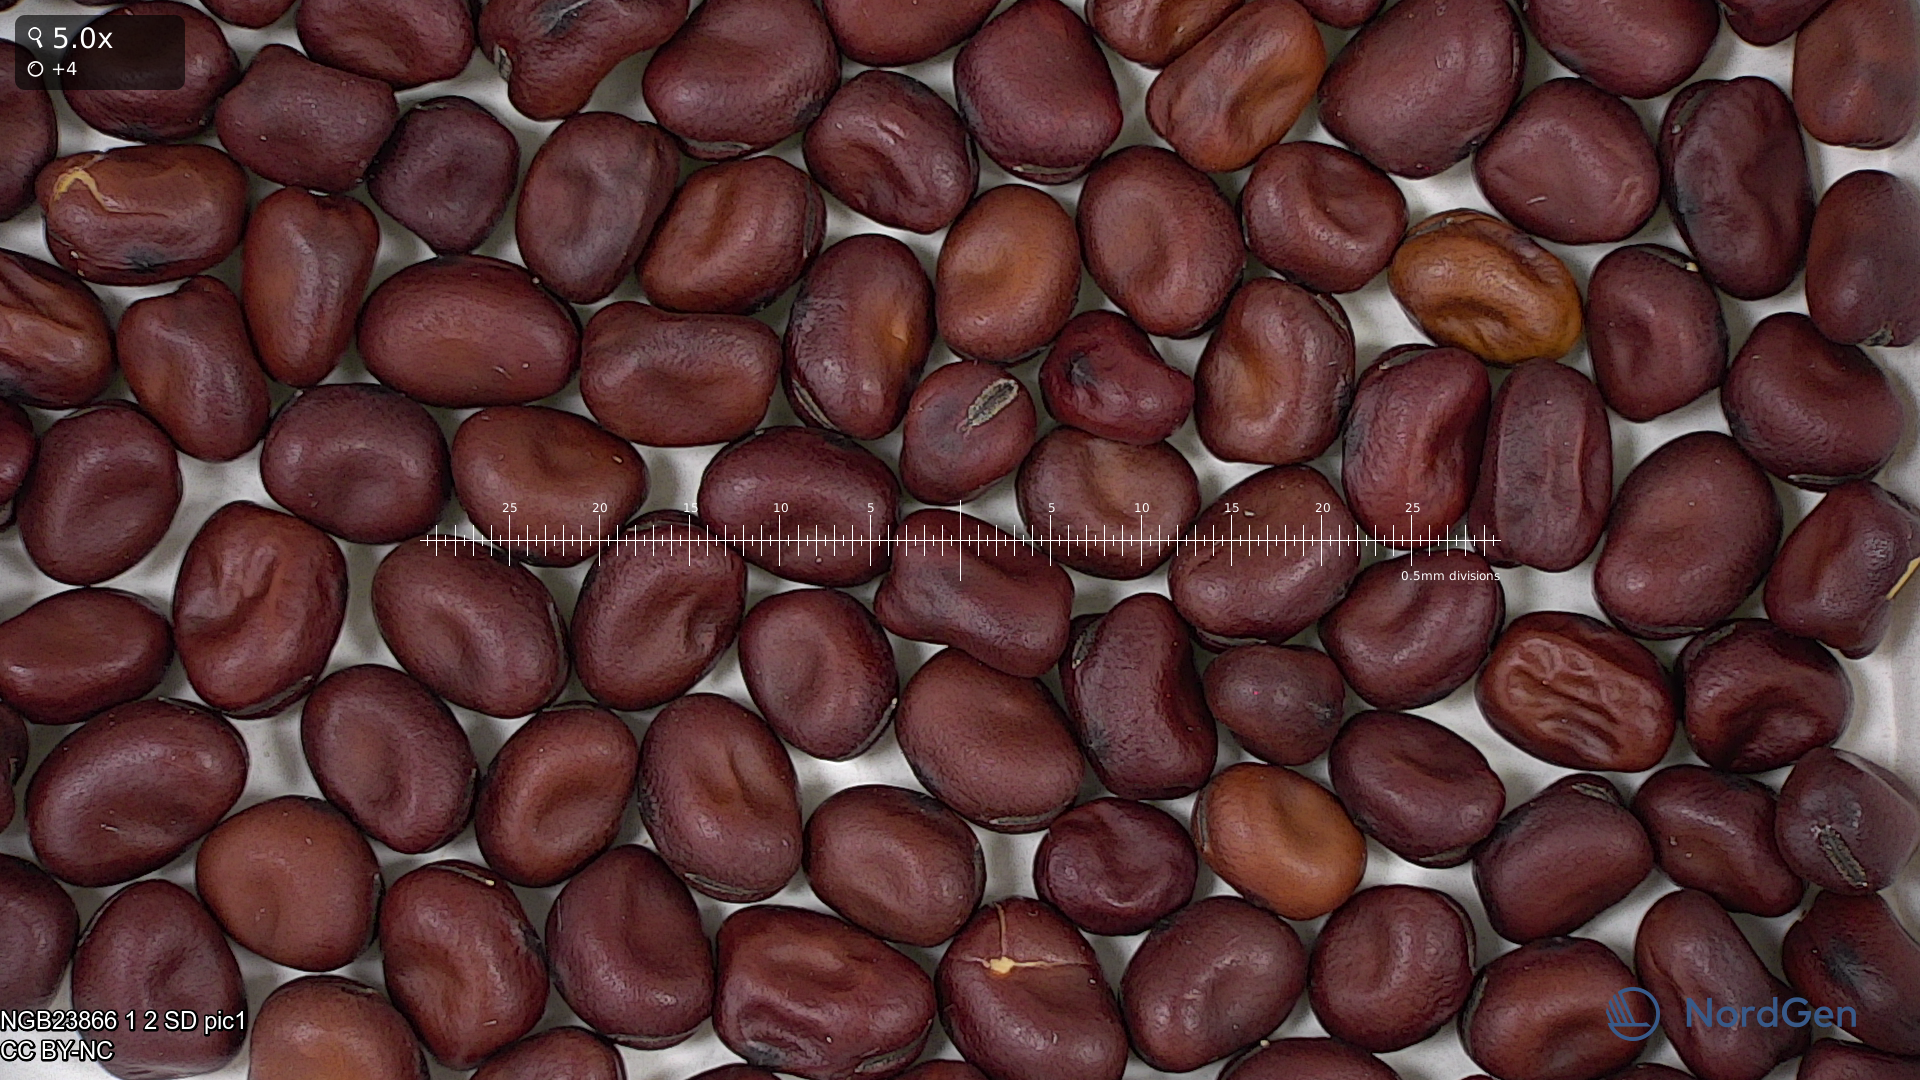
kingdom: Plantae
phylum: Tracheophyta
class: Magnoliopsida
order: Fabales
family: Fabaceae
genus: Vicia
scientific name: Vicia faba
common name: Broad bean
